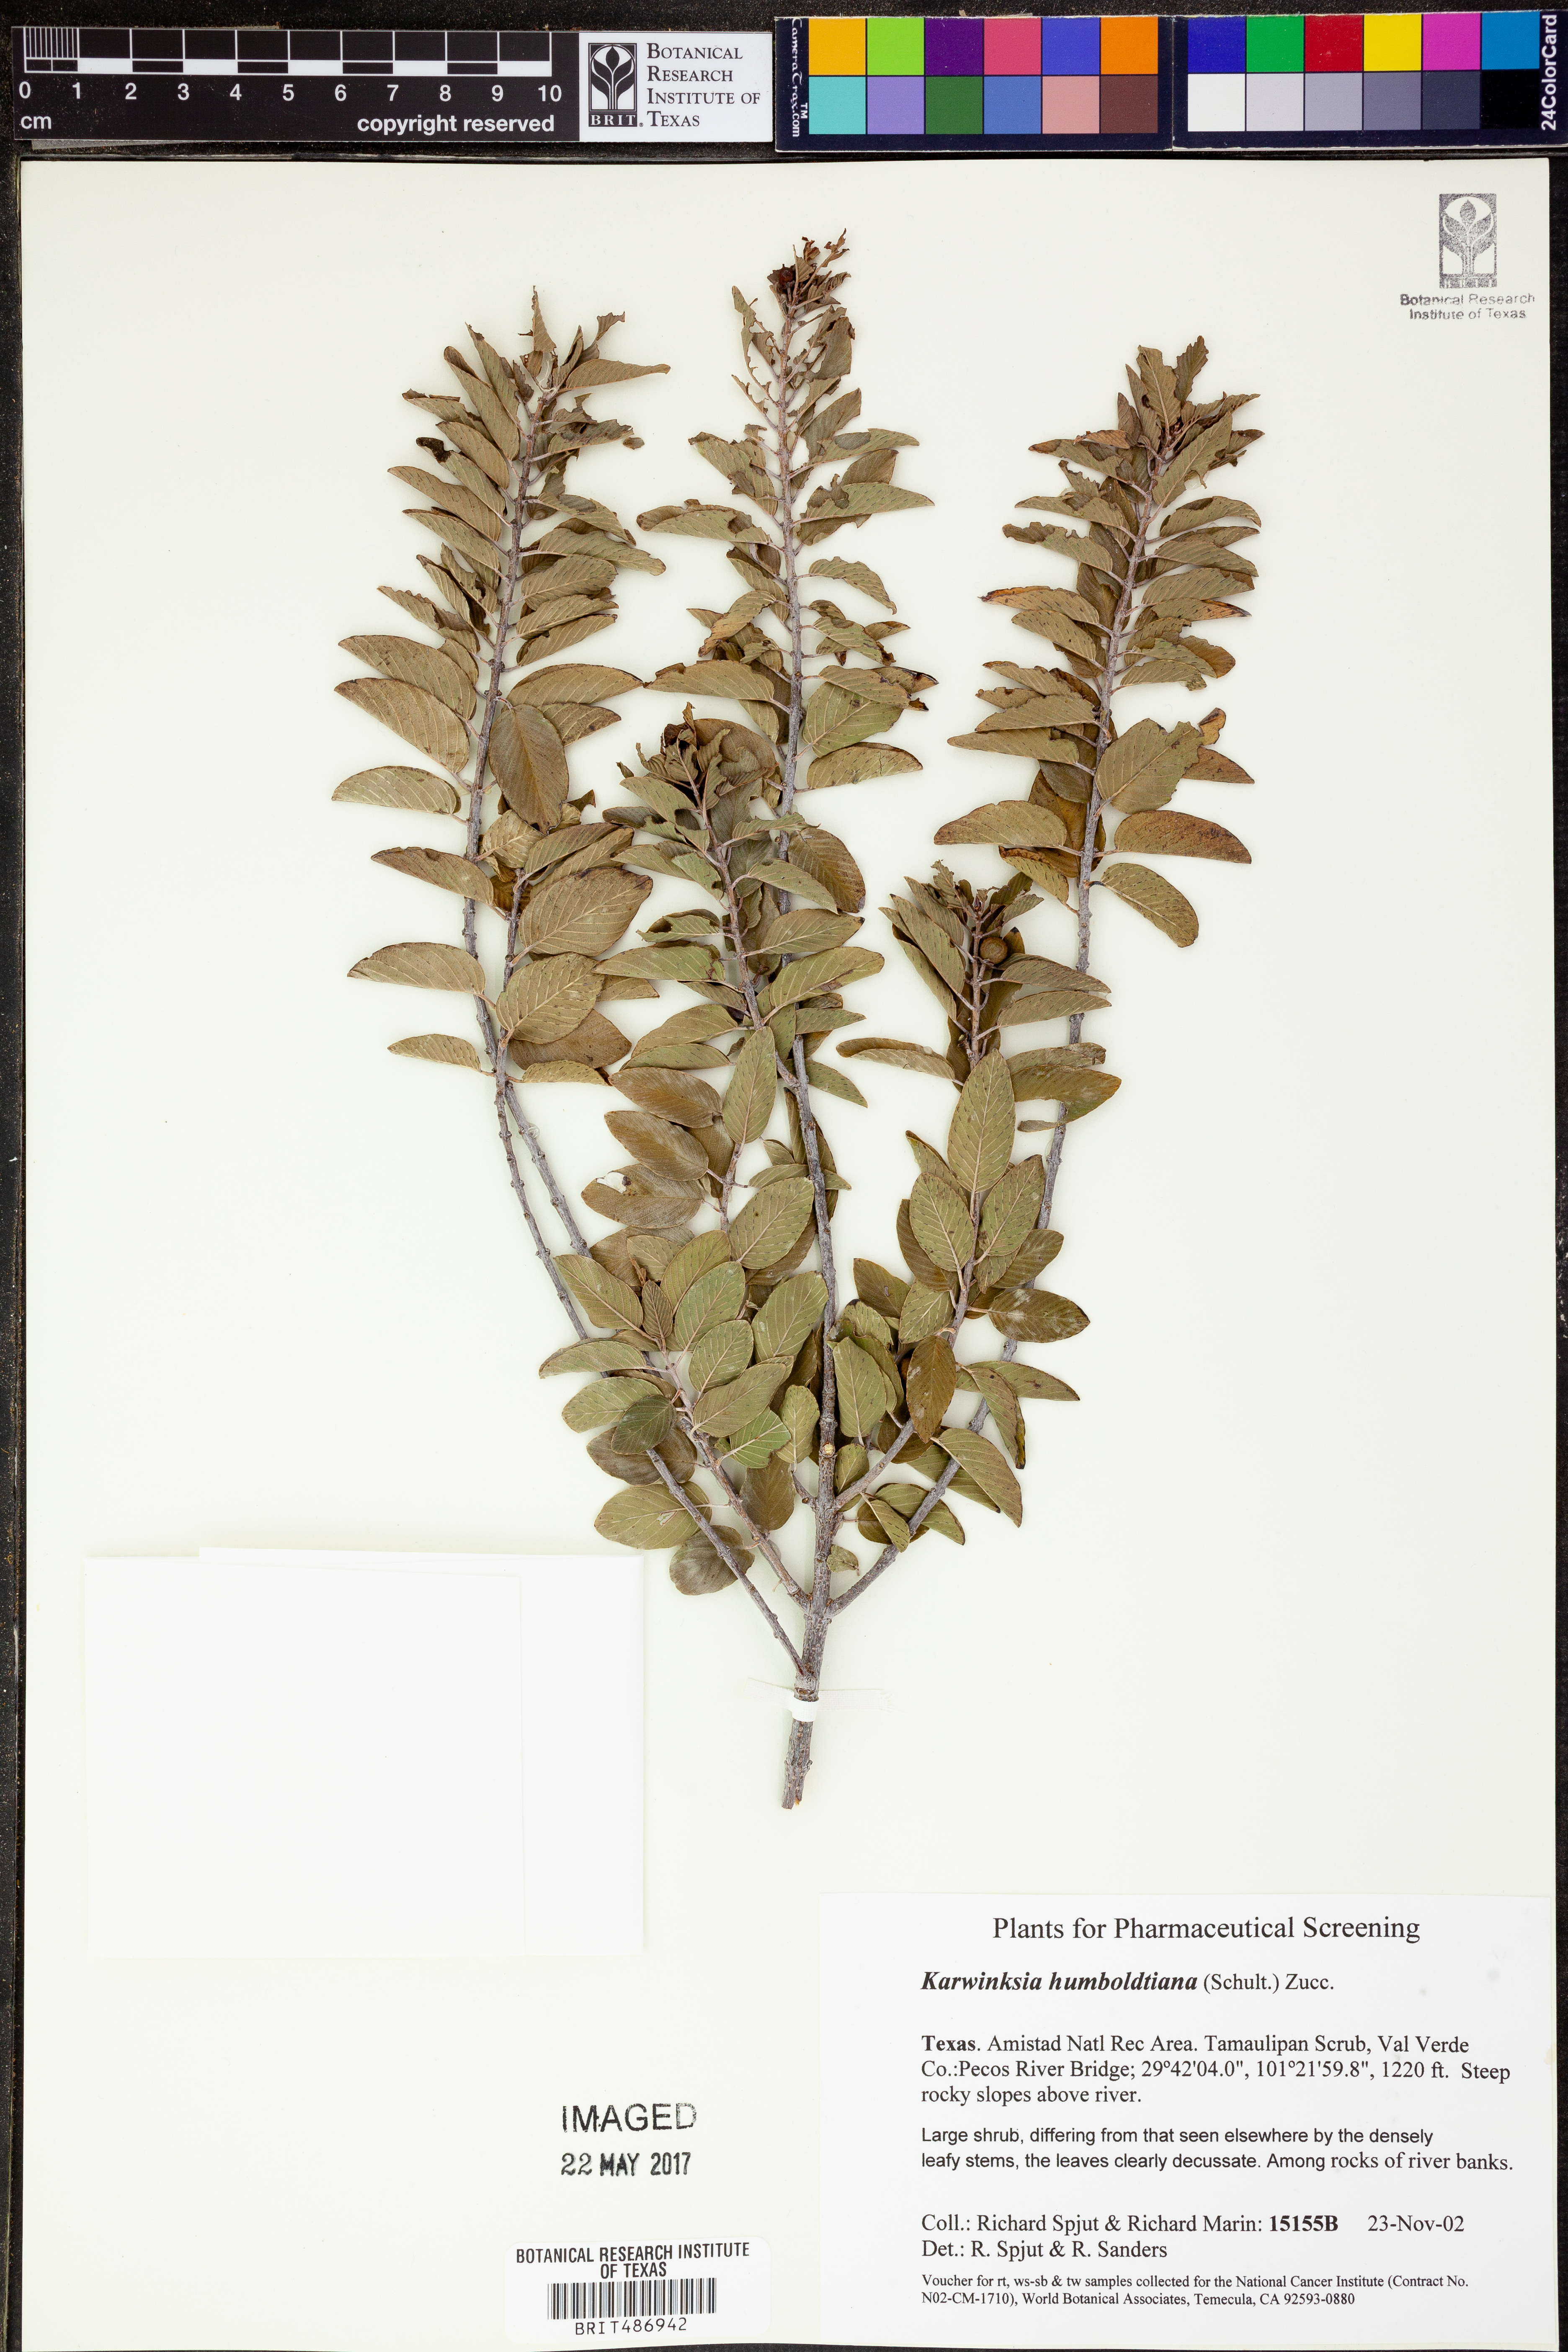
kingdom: Plantae
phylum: Tracheophyta
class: Magnoliopsida
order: Rosales
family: Rhamnaceae
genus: Karwinskia
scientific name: Karwinskia humboldtiana
